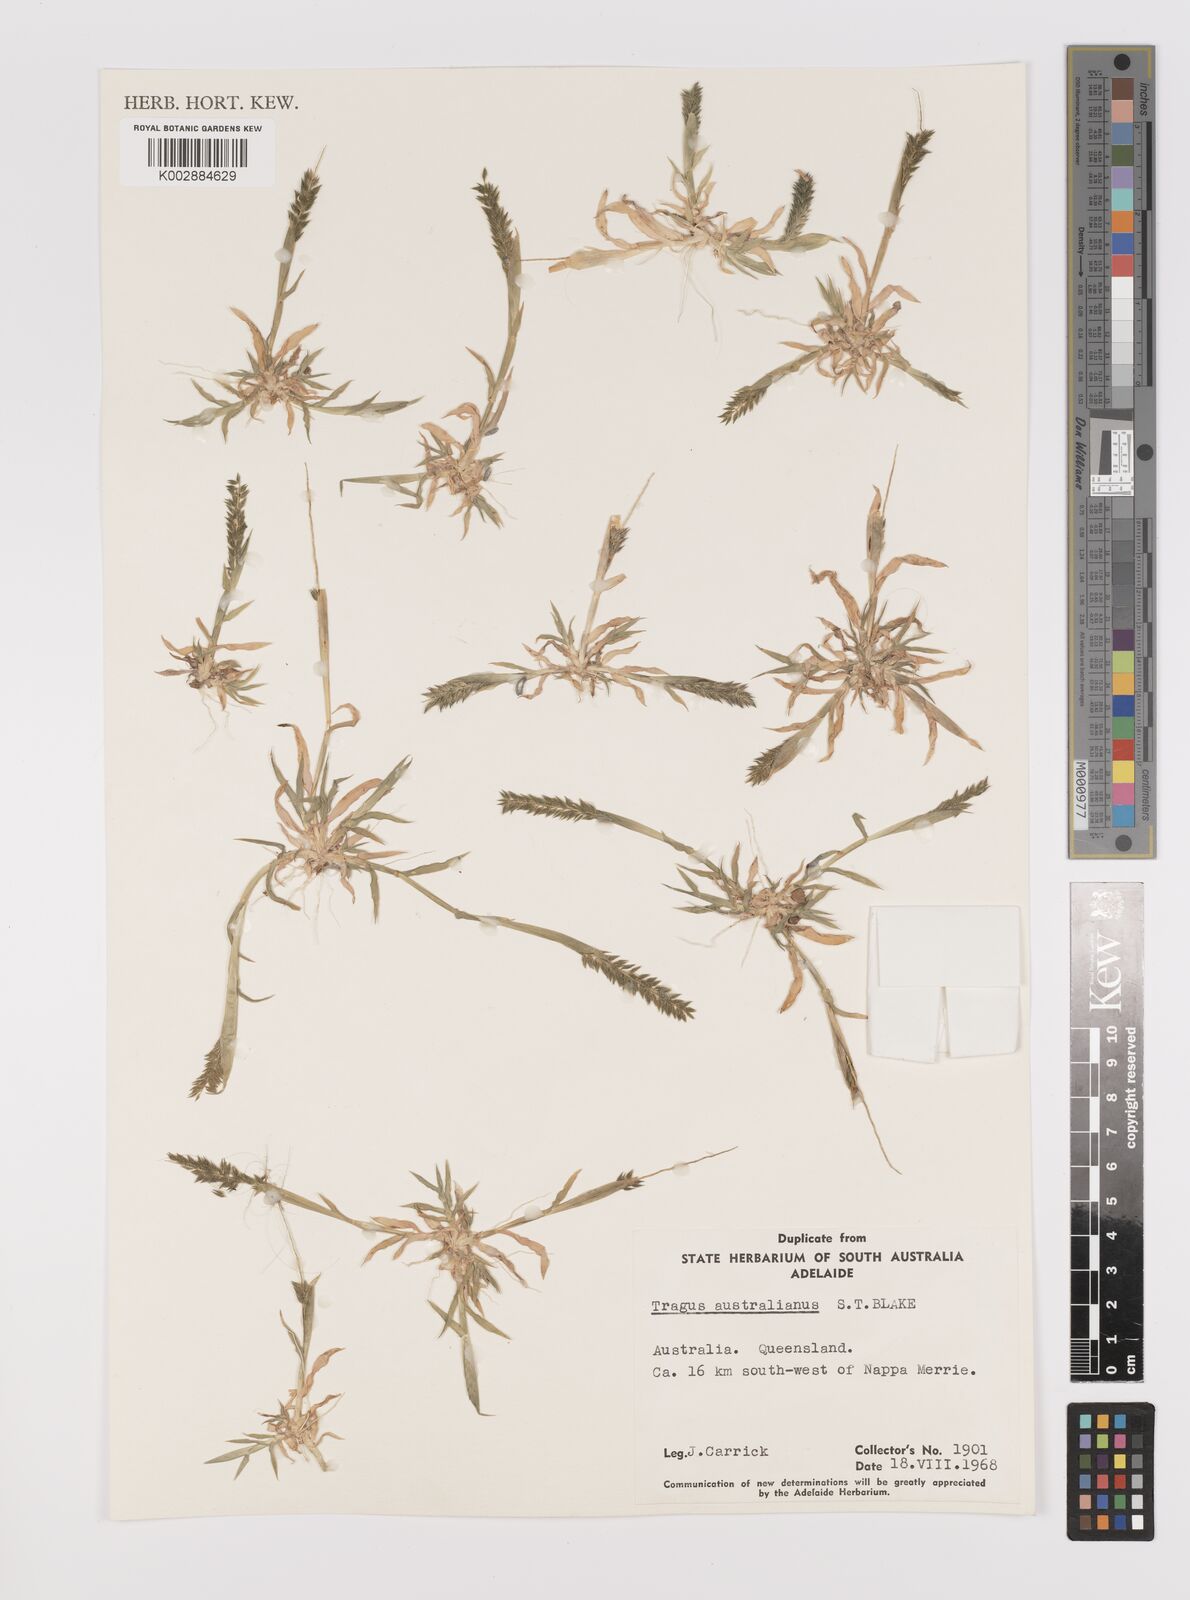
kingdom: Plantae
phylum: Tracheophyta
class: Liliopsida
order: Poales
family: Poaceae
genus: Tragus
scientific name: Tragus australianus
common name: Australian bur-grass
